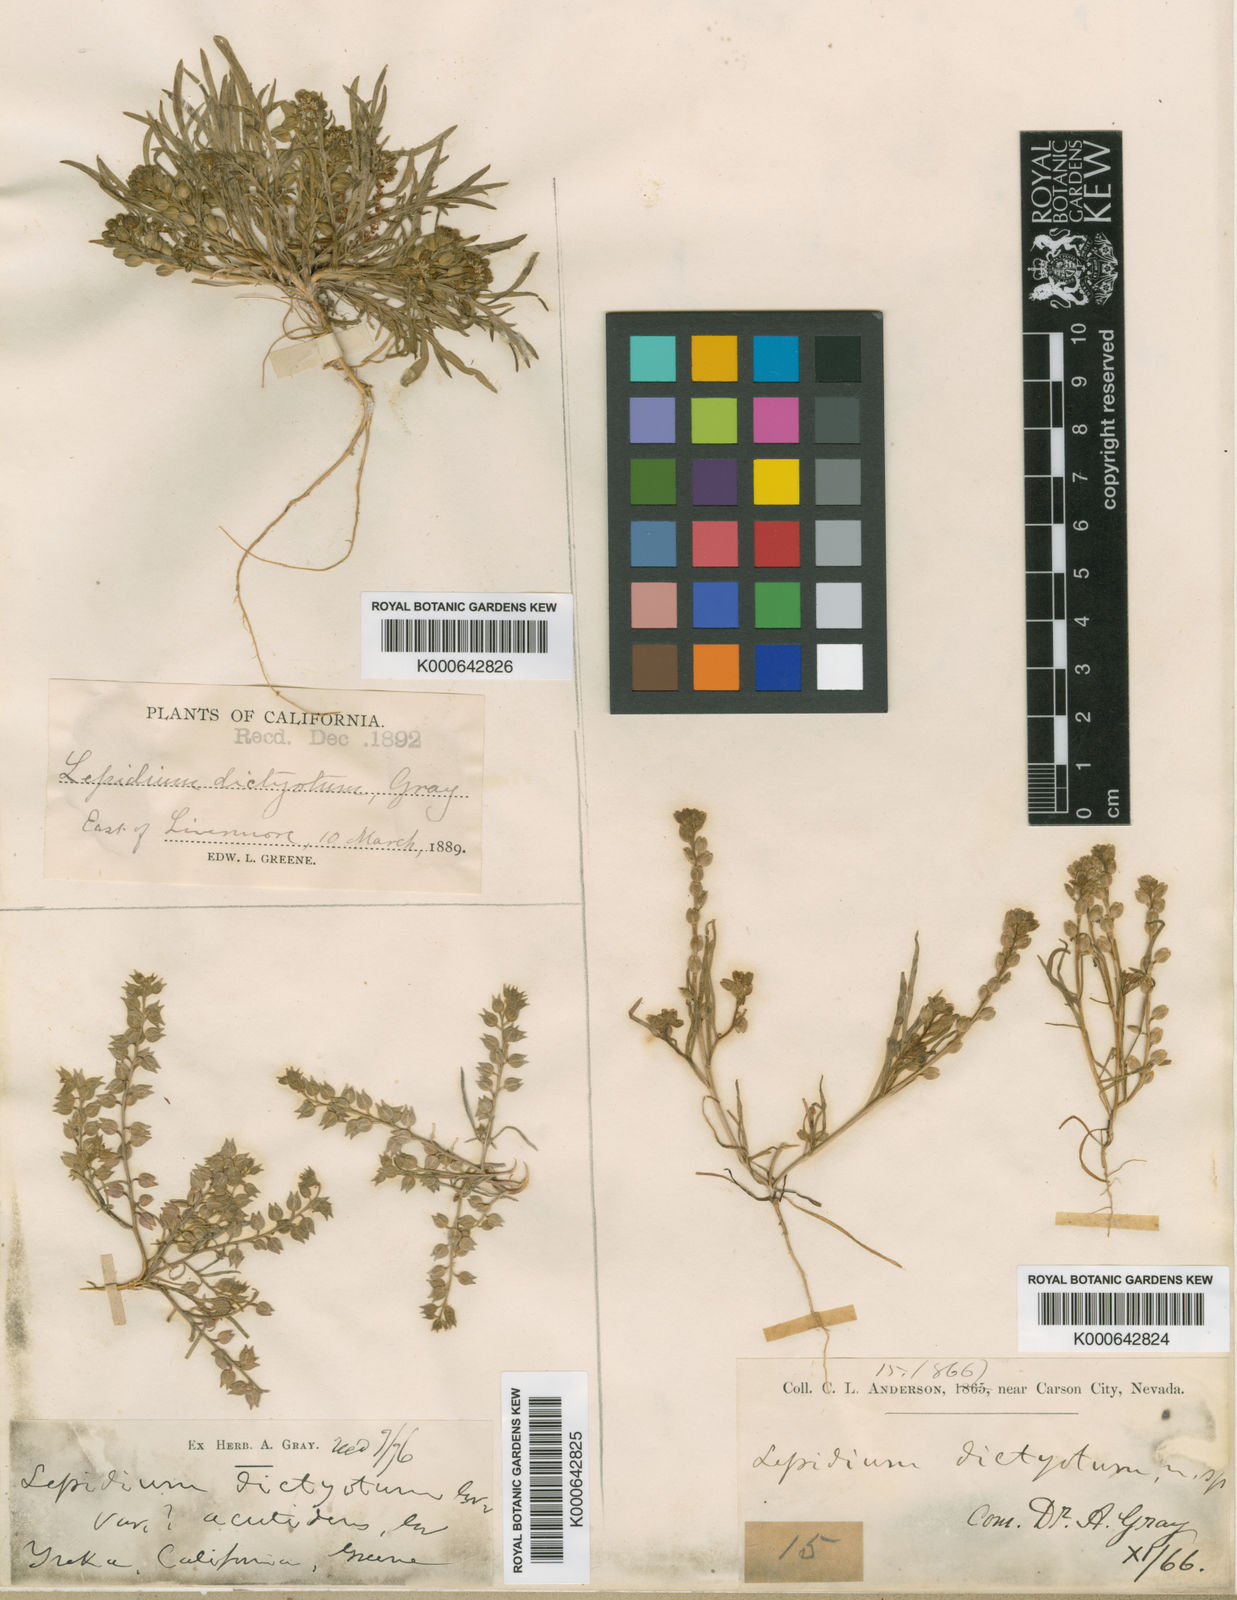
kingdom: Plantae
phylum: Tracheophyta
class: Magnoliopsida
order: Brassicales
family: Brassicaceae
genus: Lepidium
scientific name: Lepidium dictyotum
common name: Alkali pepperwort
